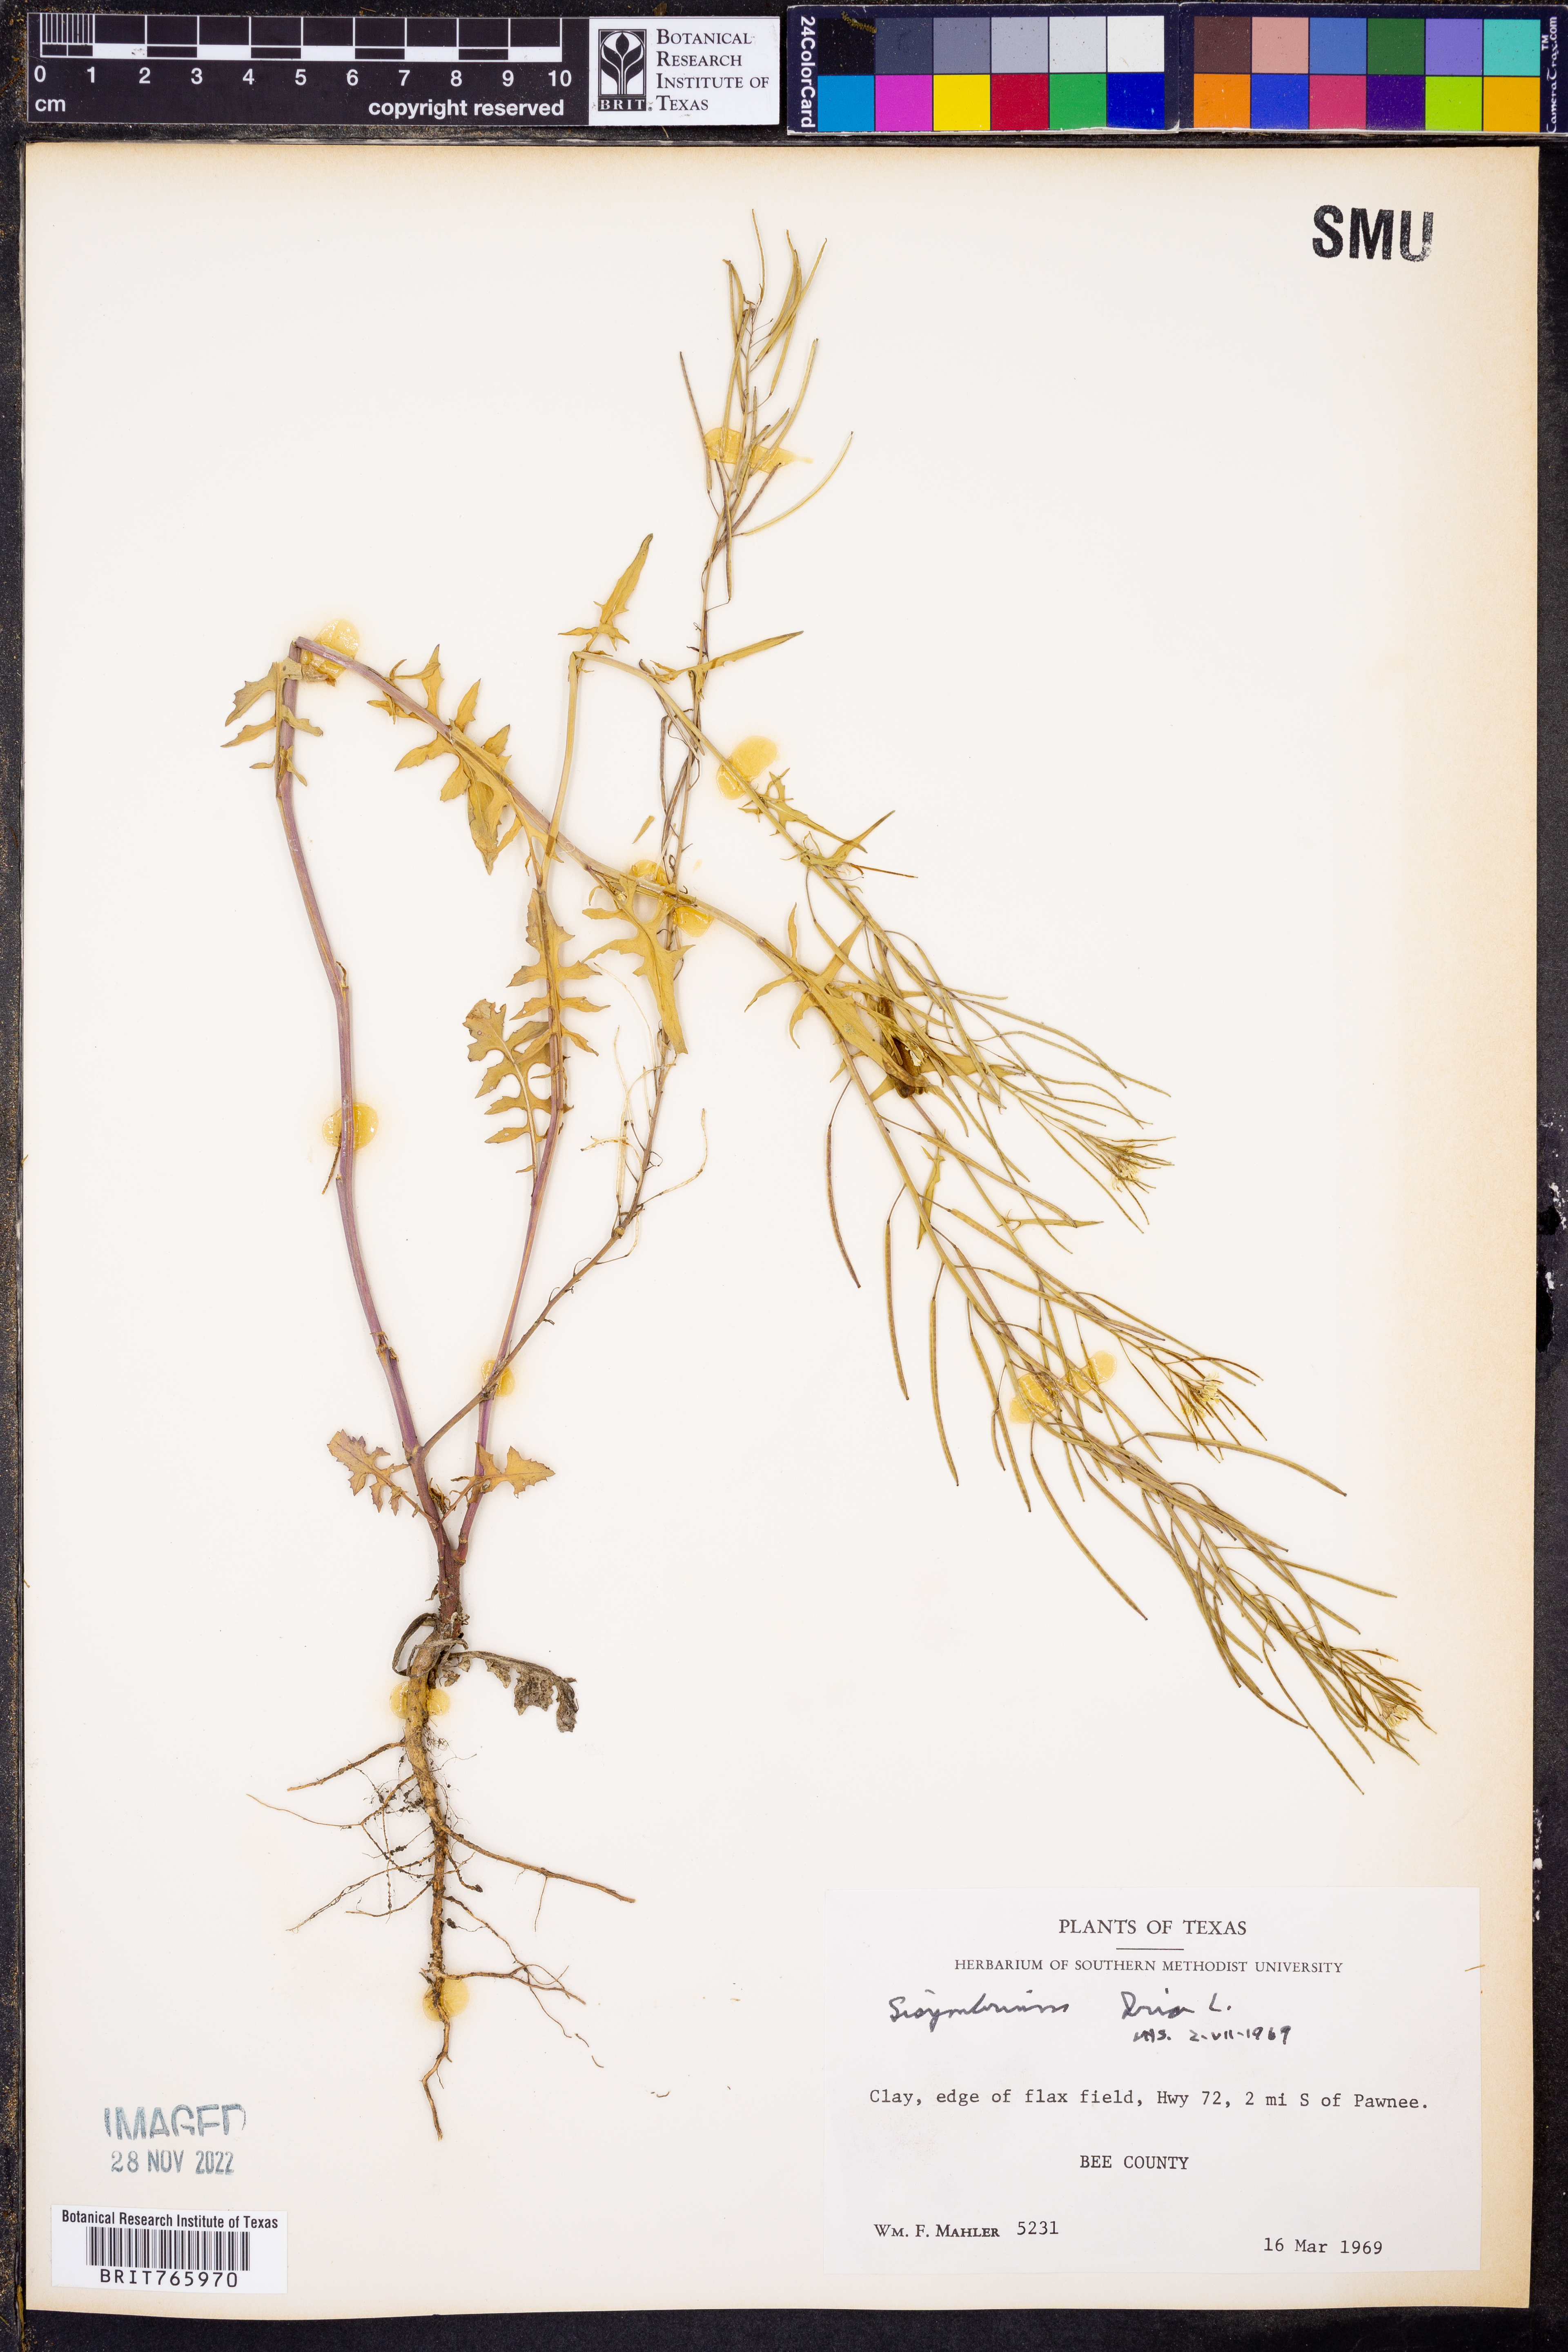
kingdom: Plantae
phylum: Tracheophyta
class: Magnoliopsida
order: Brassicales
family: Brassicaceae
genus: Sisymbrium
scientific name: Sisymbrium irio
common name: London rocket
